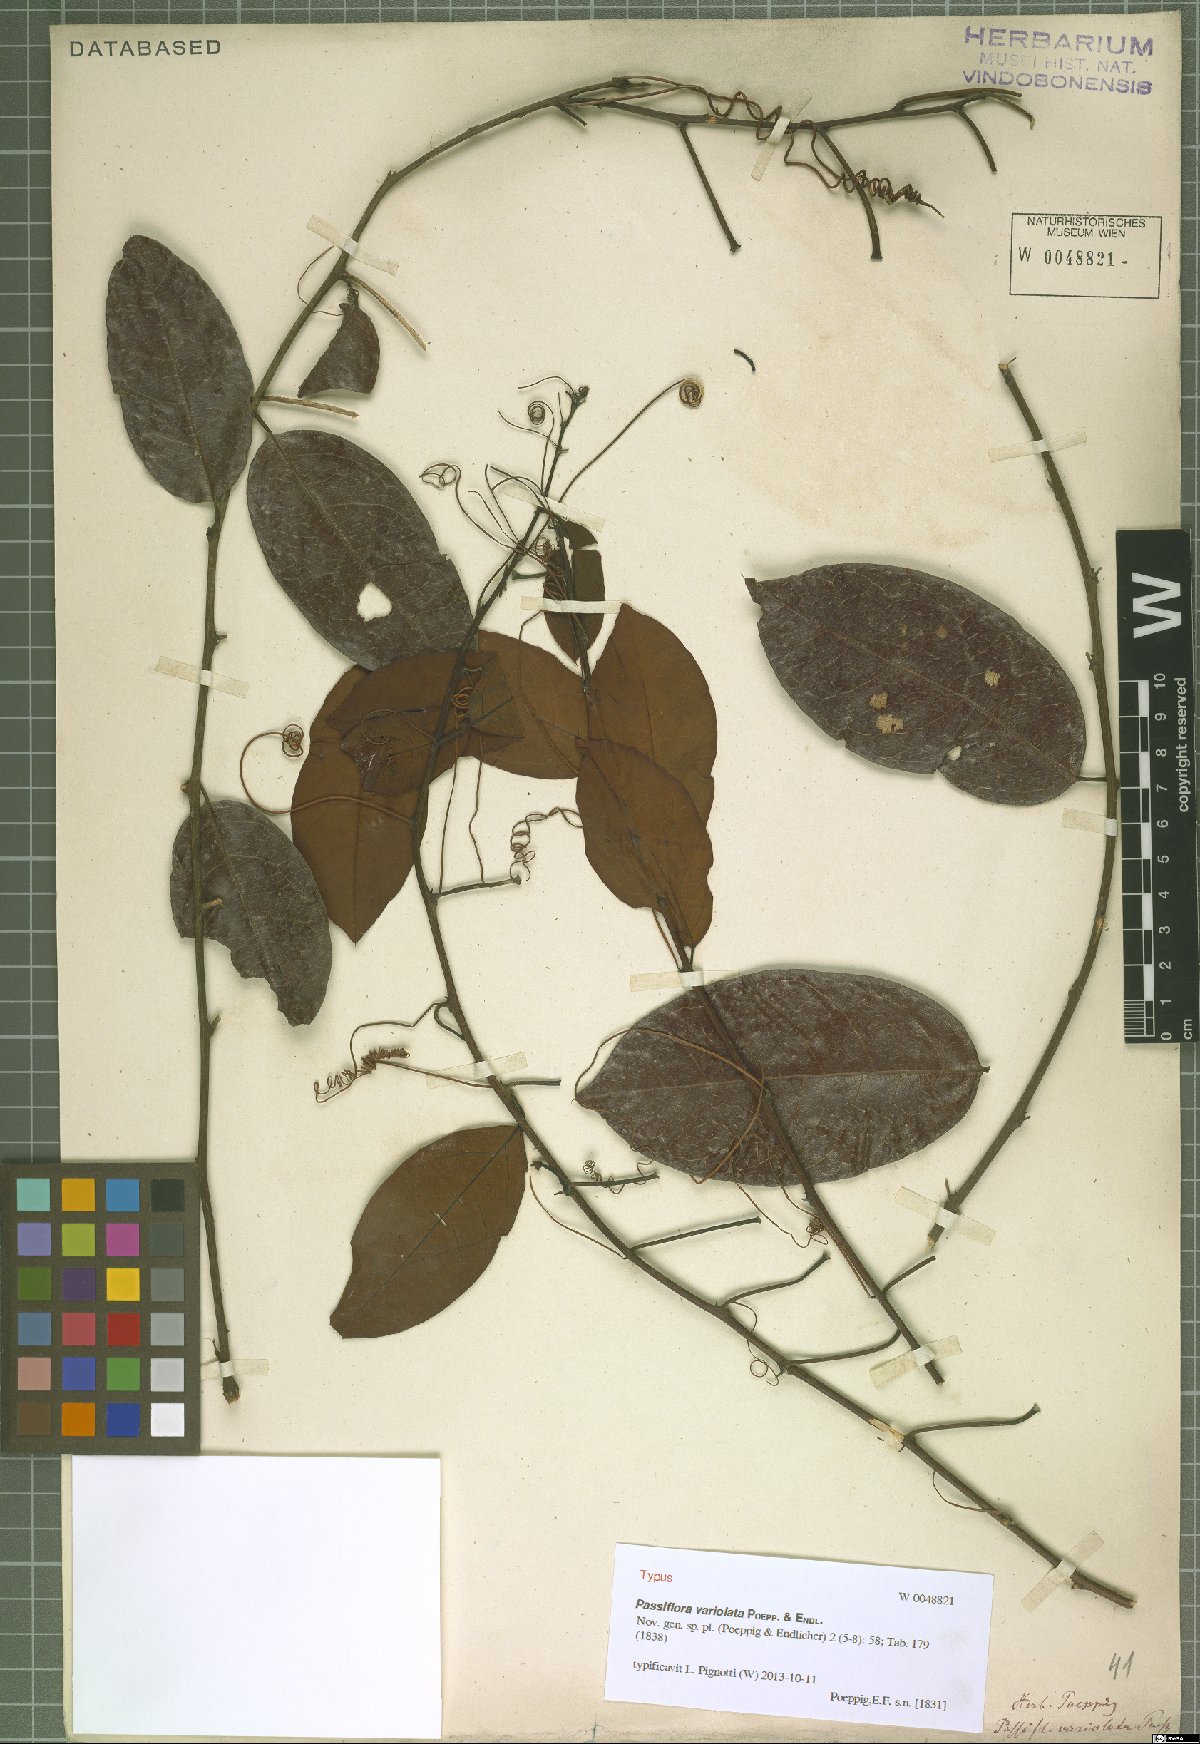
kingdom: Plantae
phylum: Tracheophyta
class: Magnoliopsida
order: Malpighiales
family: Passifloraceae
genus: Passiflora
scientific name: Passiflora variolata
